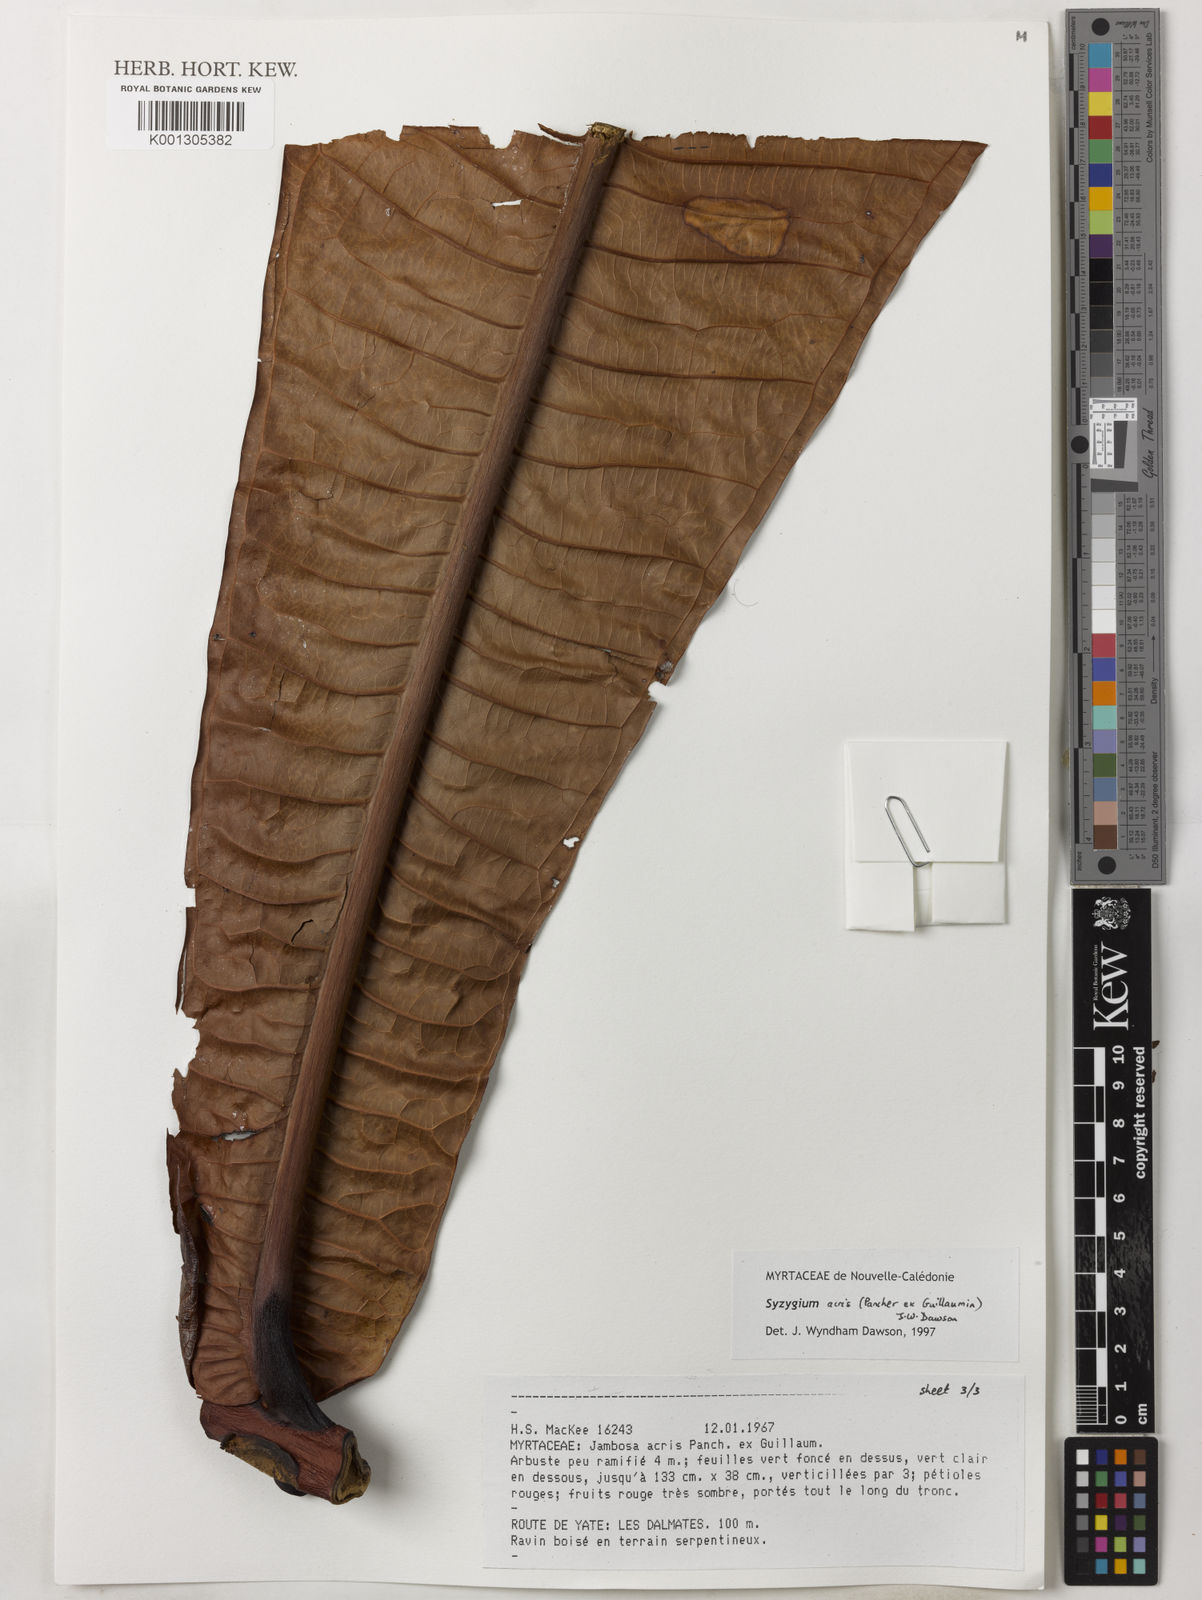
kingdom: Plantae
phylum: Tracheophyta
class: Magnoliopsida
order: Myrtales
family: Myrtaceae
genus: Syzygium
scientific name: Syzygium
